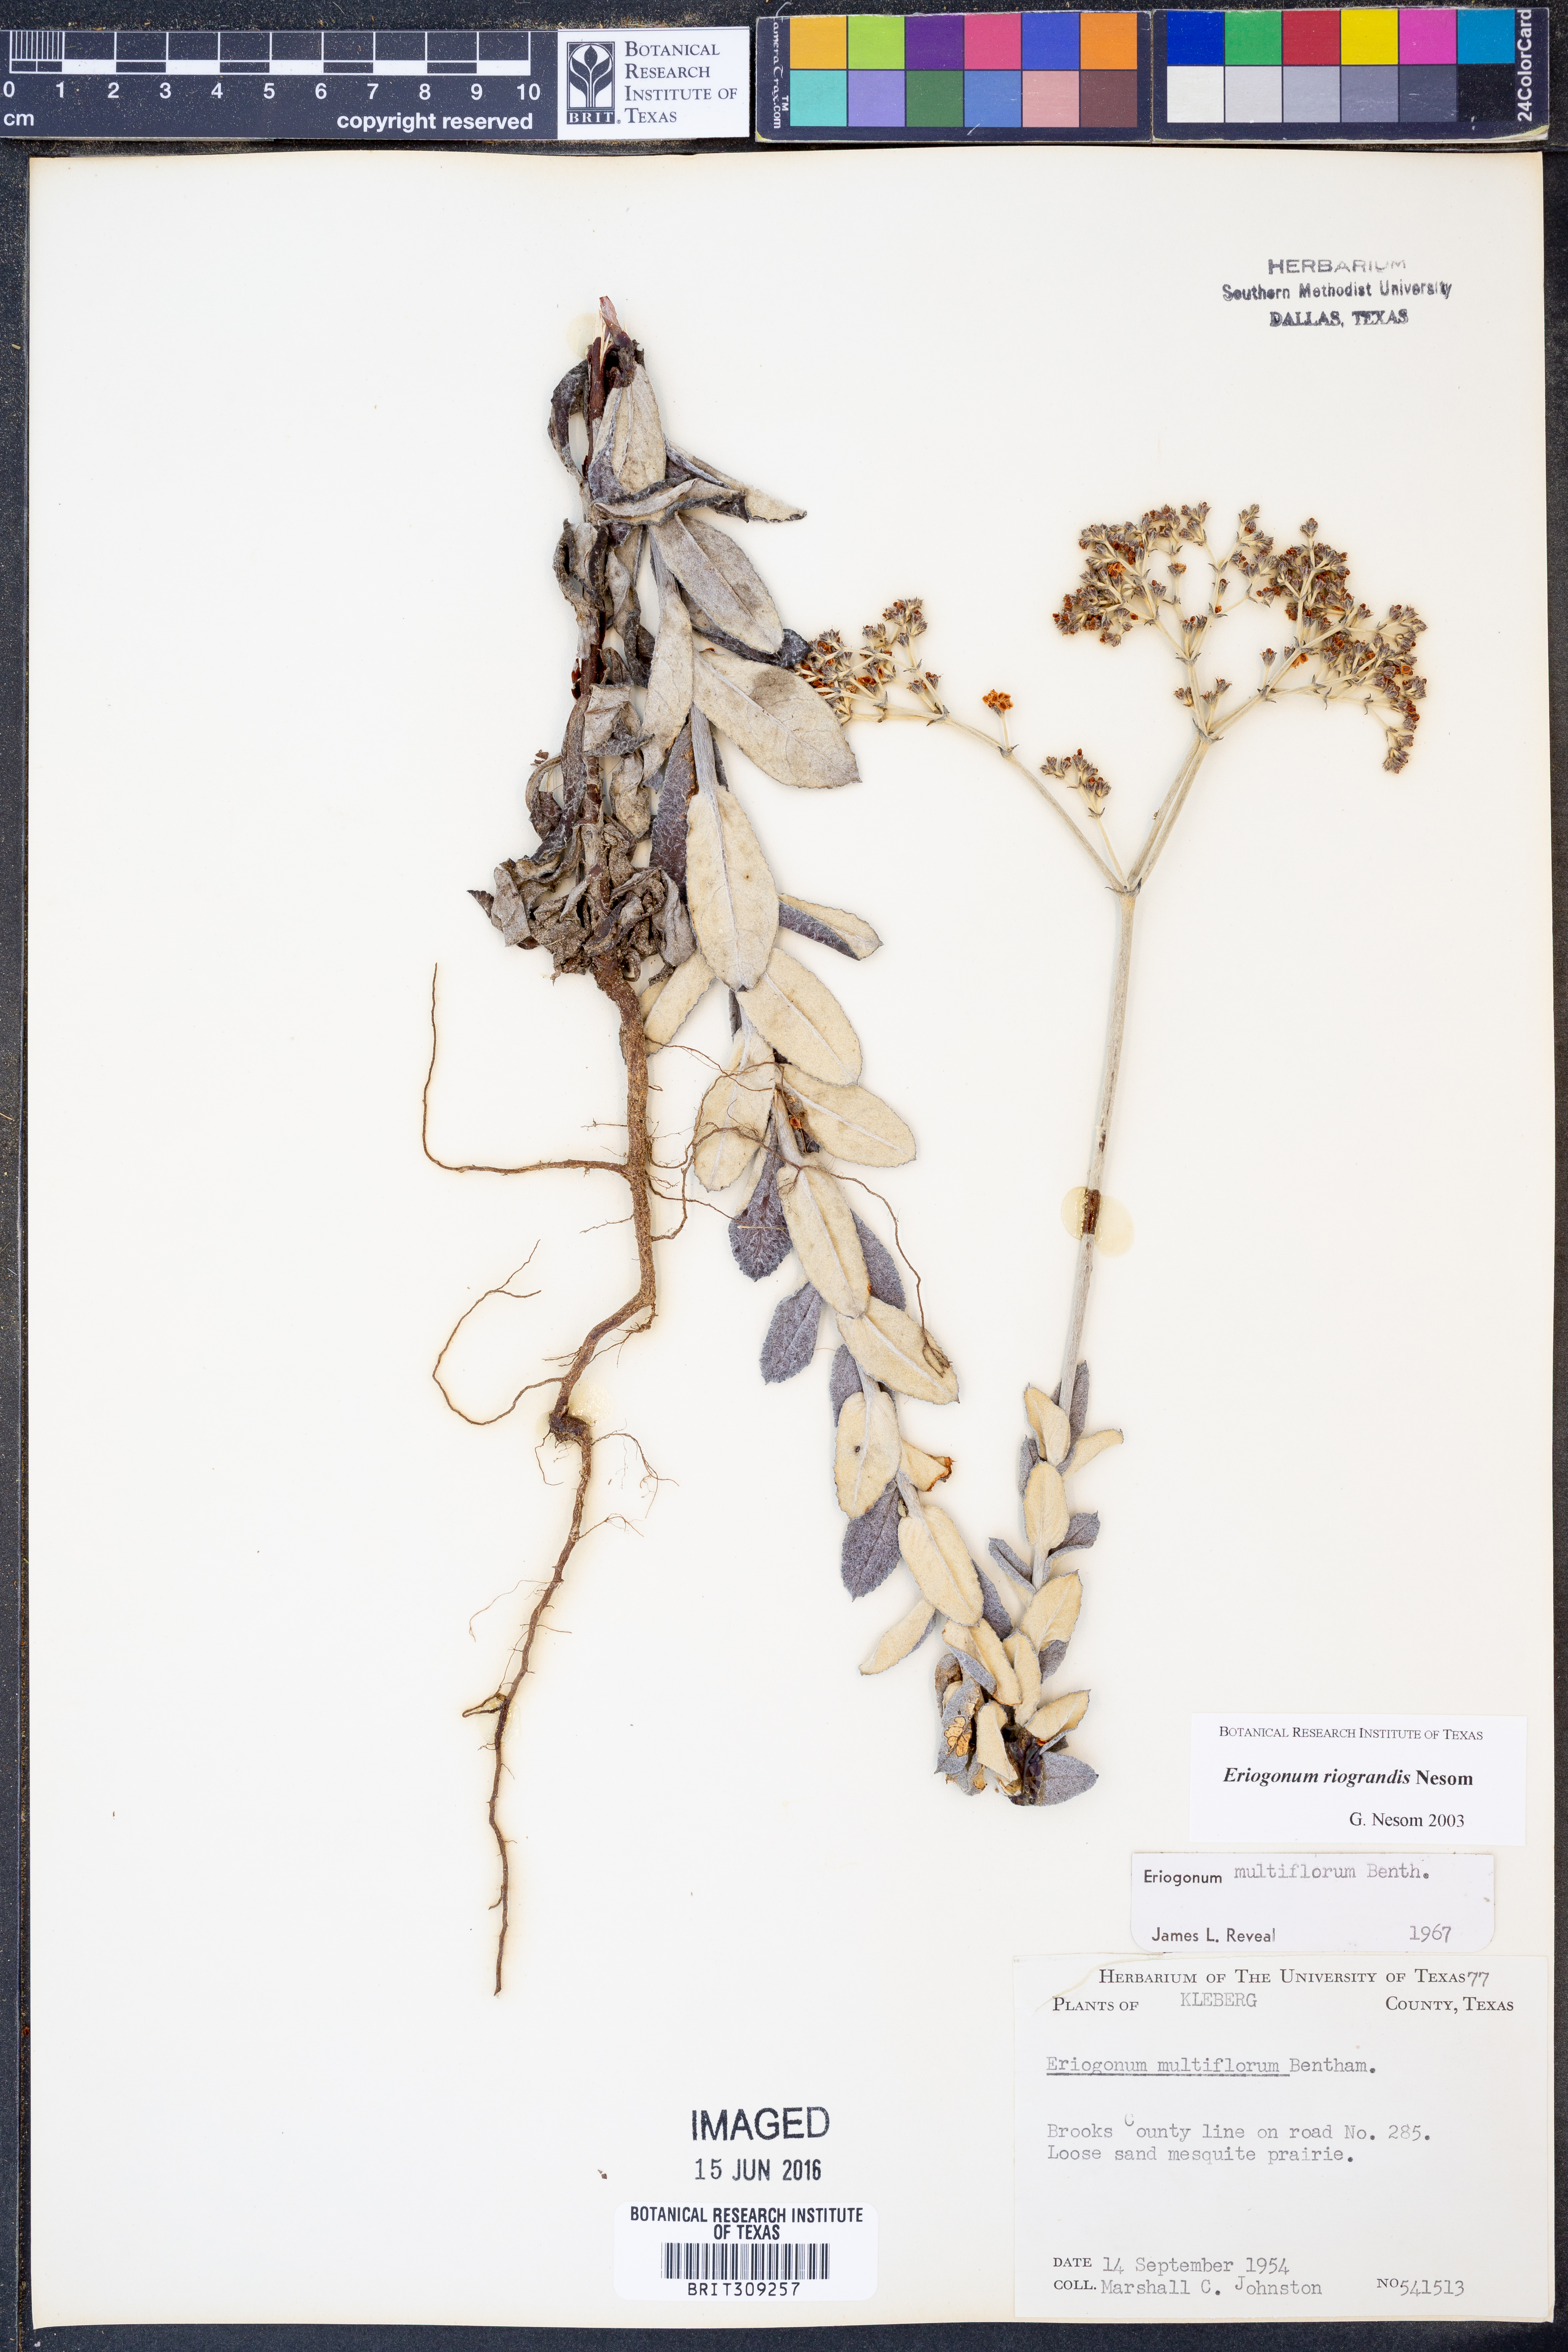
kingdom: Plantae
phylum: Tracheophyta
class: Magnoliopsida
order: Caryophyllales
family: Polygonaceae
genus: Eriogonum
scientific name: Eriogonum multiflorum
